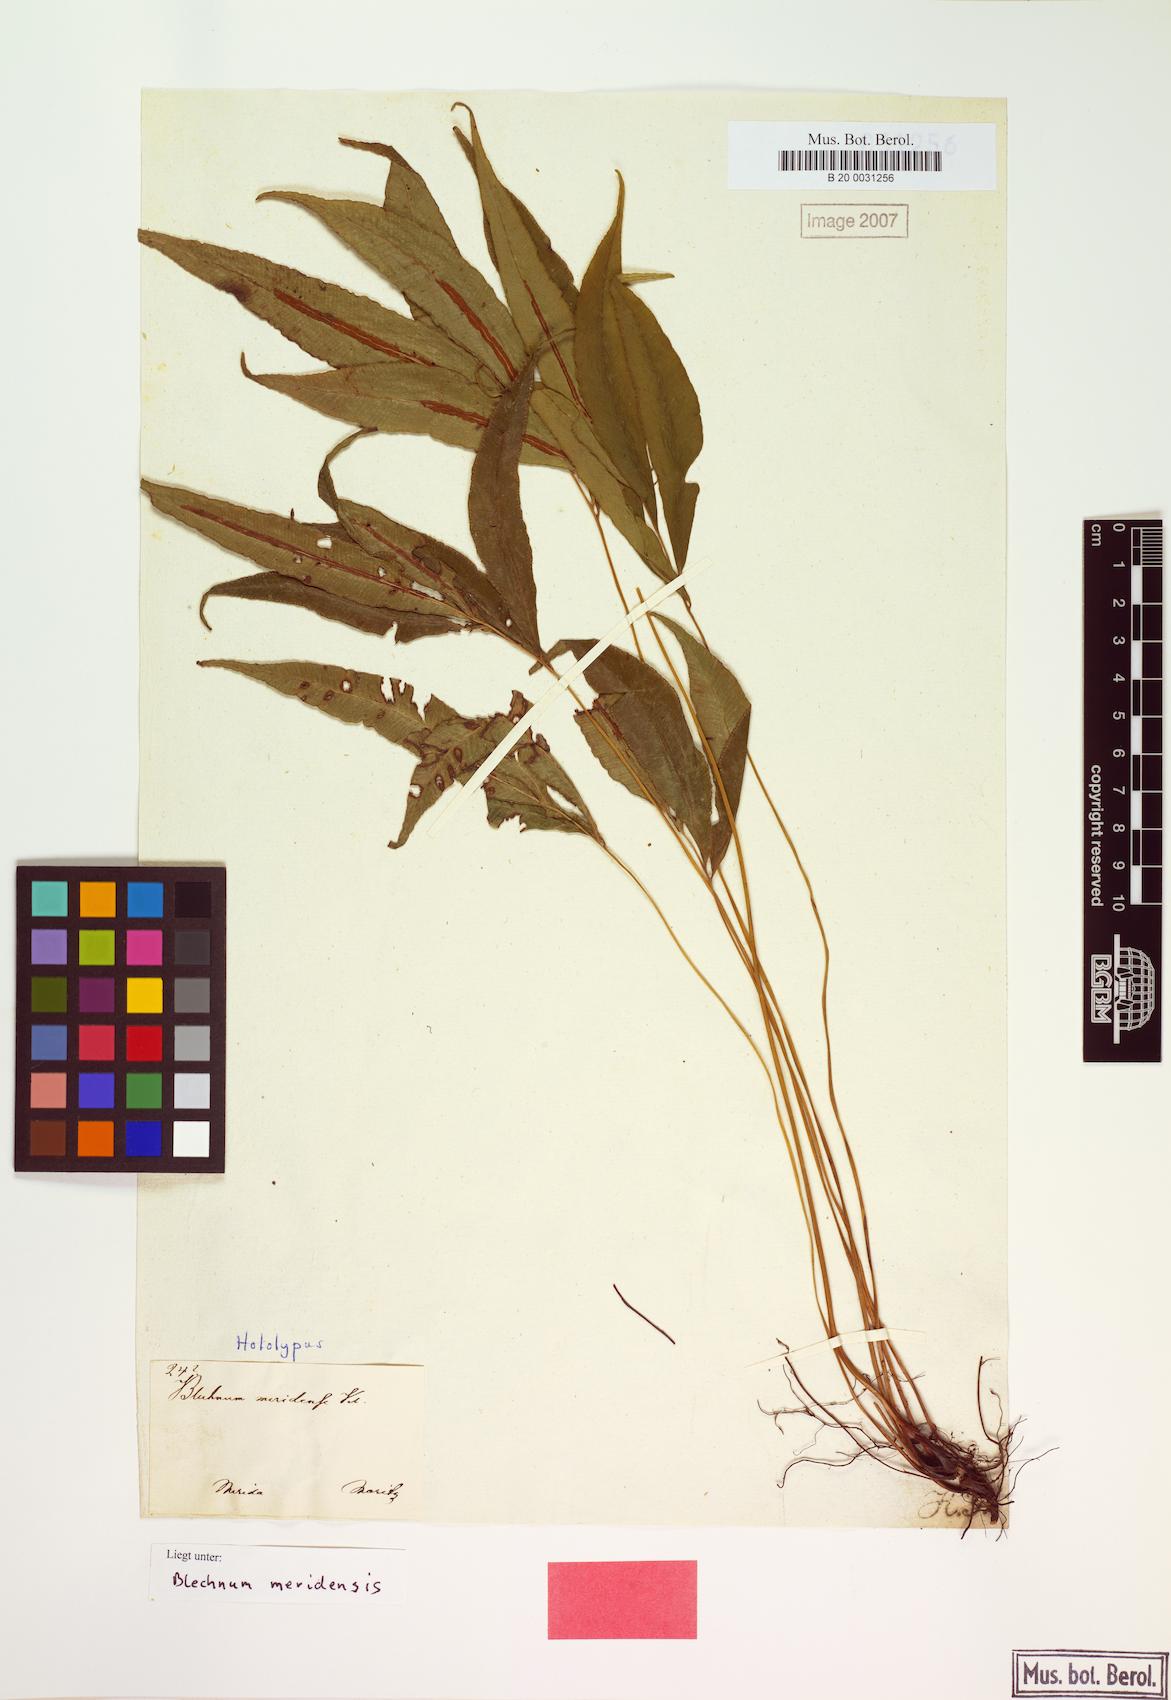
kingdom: Plantae
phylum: Tracheophyta
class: Polypodiopsida
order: Polypodiales
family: Blechnaceae
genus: Blechnum
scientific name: Blechnum meridense
